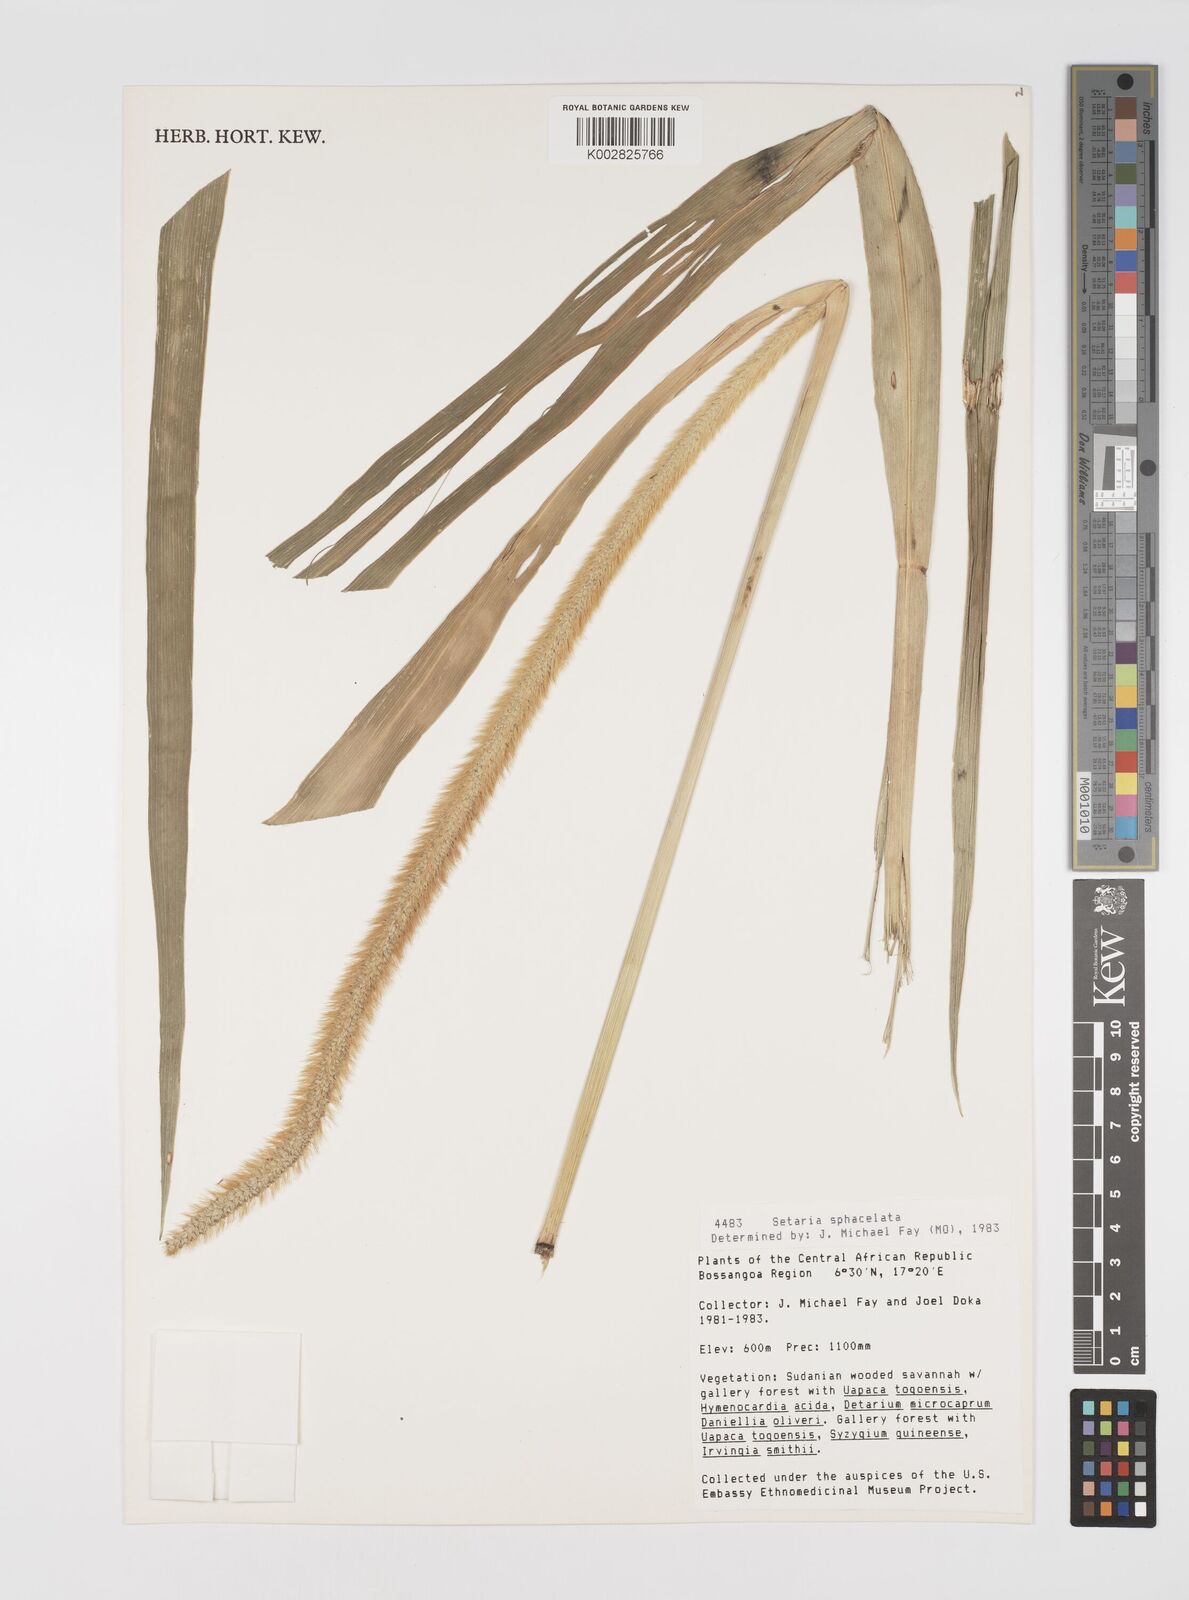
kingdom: Plantae
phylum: Tracheophyta
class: Liliopsida
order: Poales
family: Poaceae
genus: Setaria
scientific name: Setaria sphacelata
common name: African bristlegrass
